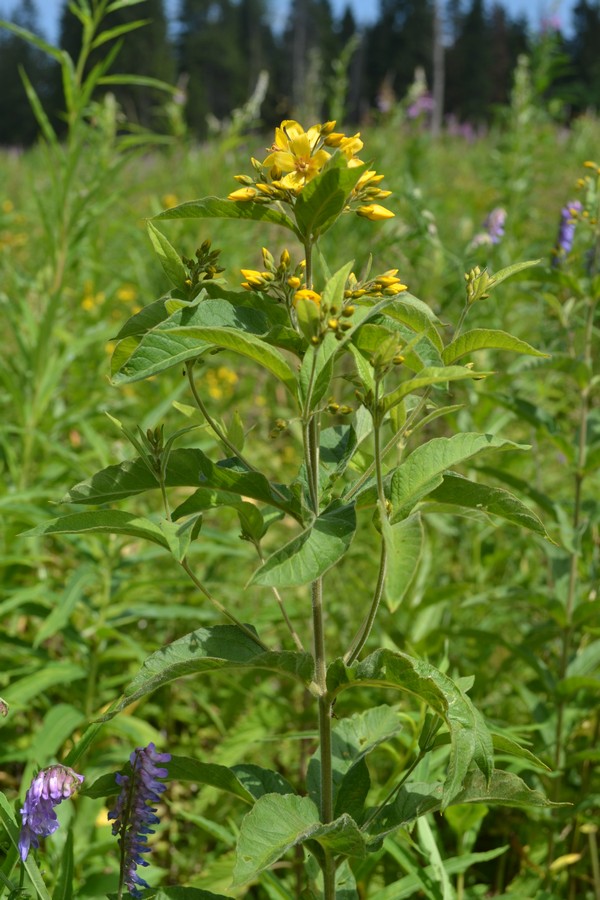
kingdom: Plantae
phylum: Tracheophyta
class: Magnoliopsida
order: Ericales
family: Primulaceae
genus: Lysimachia
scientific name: Lysimachia vulgaris
